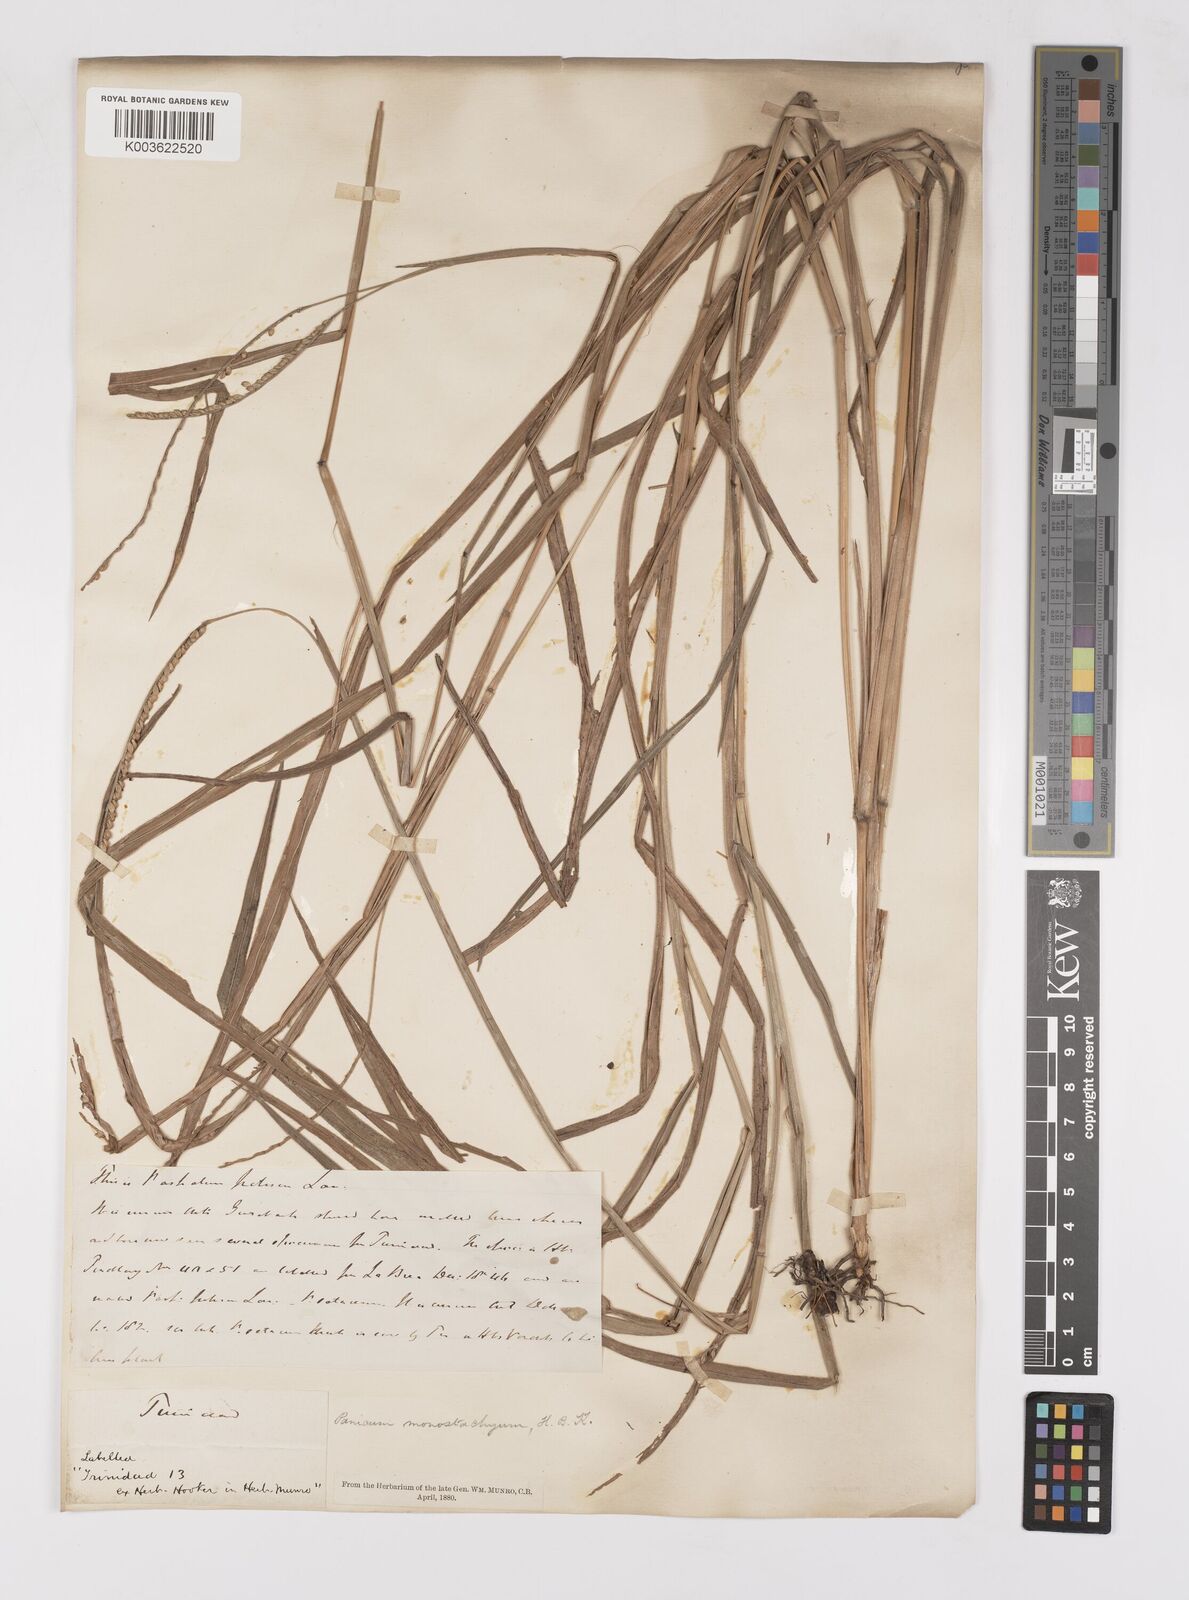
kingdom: Plantae
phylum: Tracheophyta
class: Liliopsida
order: Poales
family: Poaceae
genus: Paspalum
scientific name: Paspalum pilosum
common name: Crowngrass
